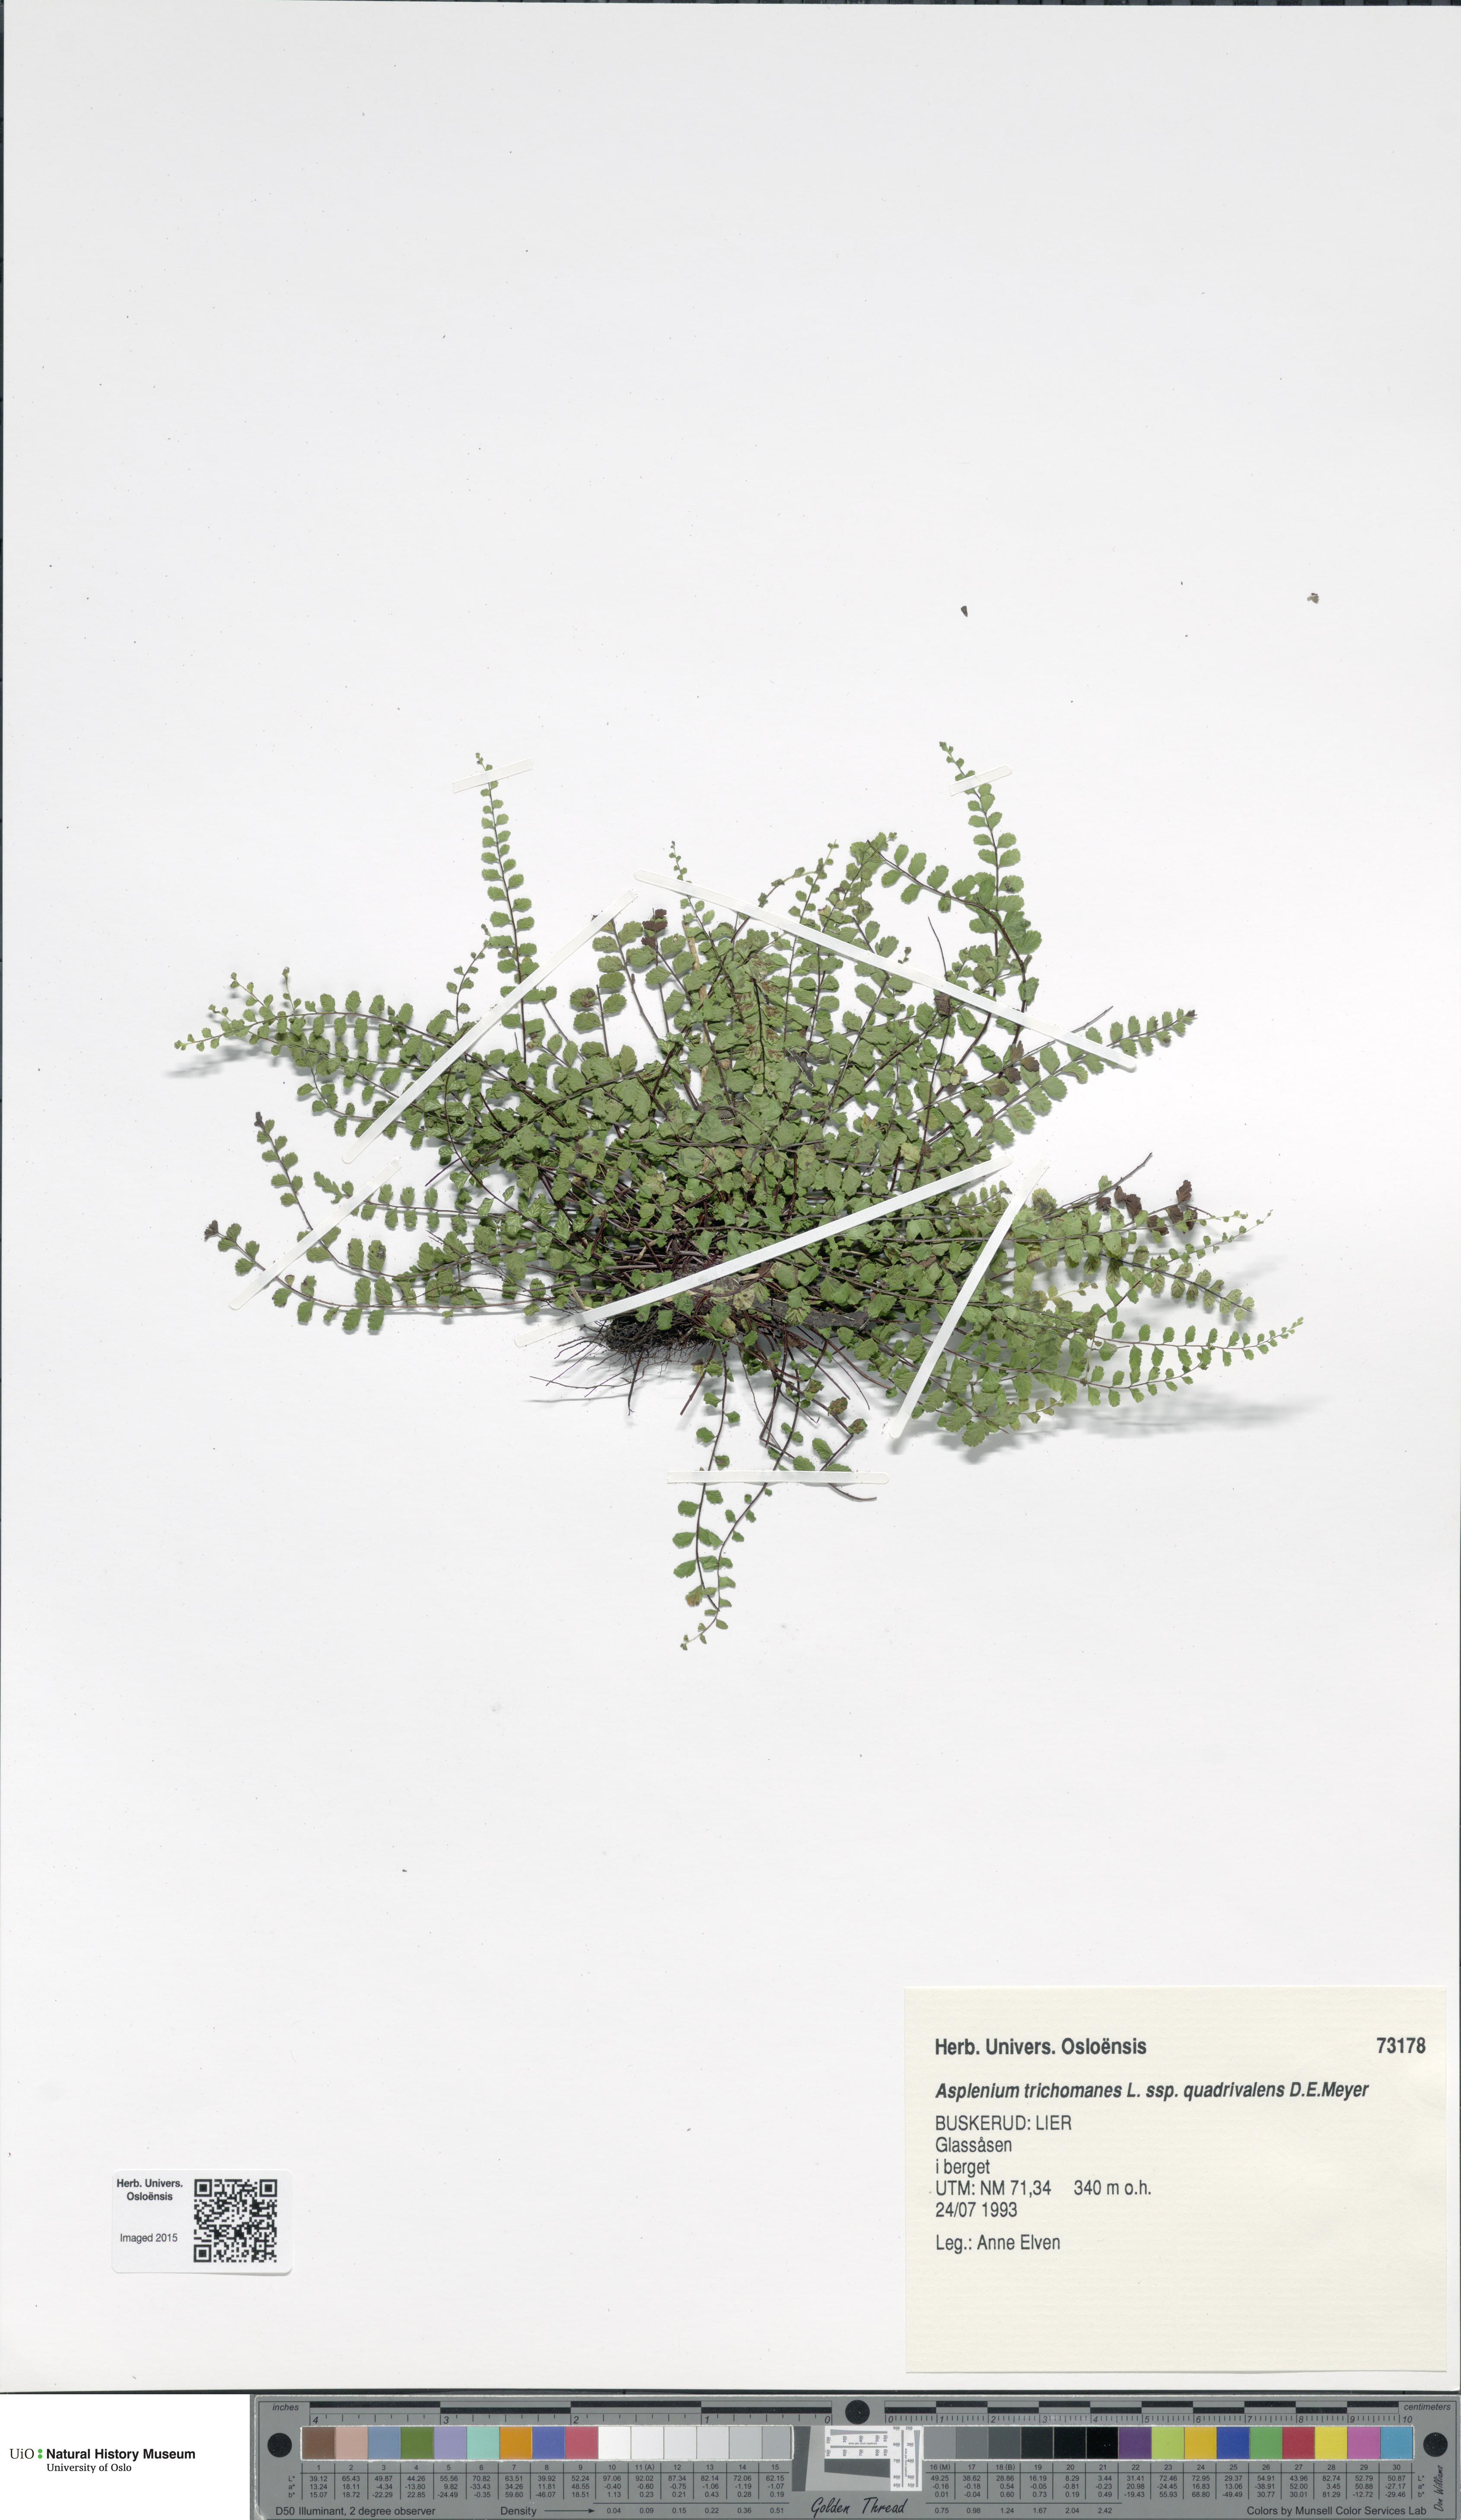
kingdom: Plantae
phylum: Tracheophyta
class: Polypodiopsida
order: Polypodiales
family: Aspleniaceae
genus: Asplenium
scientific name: Asplenium quadrivalens
